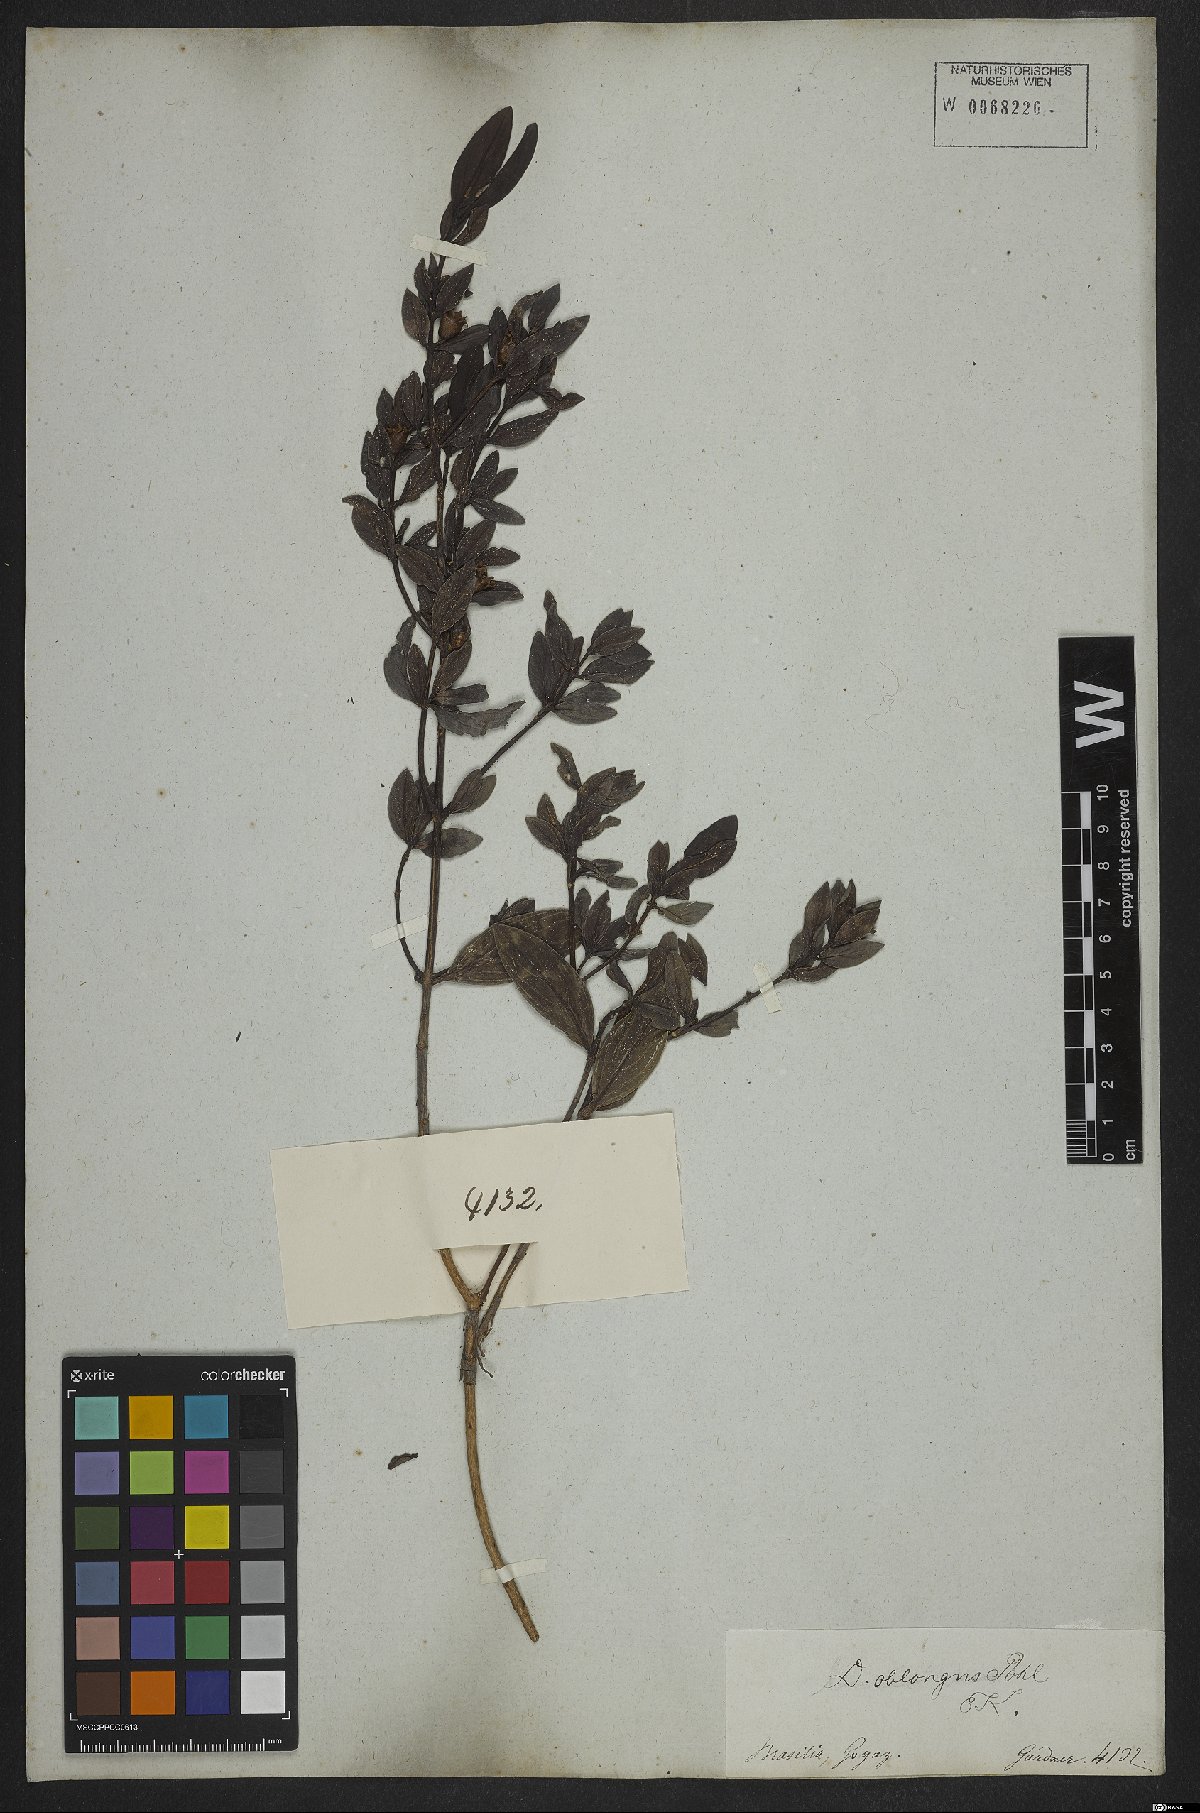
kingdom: Plantae
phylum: Tracheophyta
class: Magnoliopsida
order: Myrtales
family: Lythraceae
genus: Diplusodon
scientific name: Diplusodon oblongus
